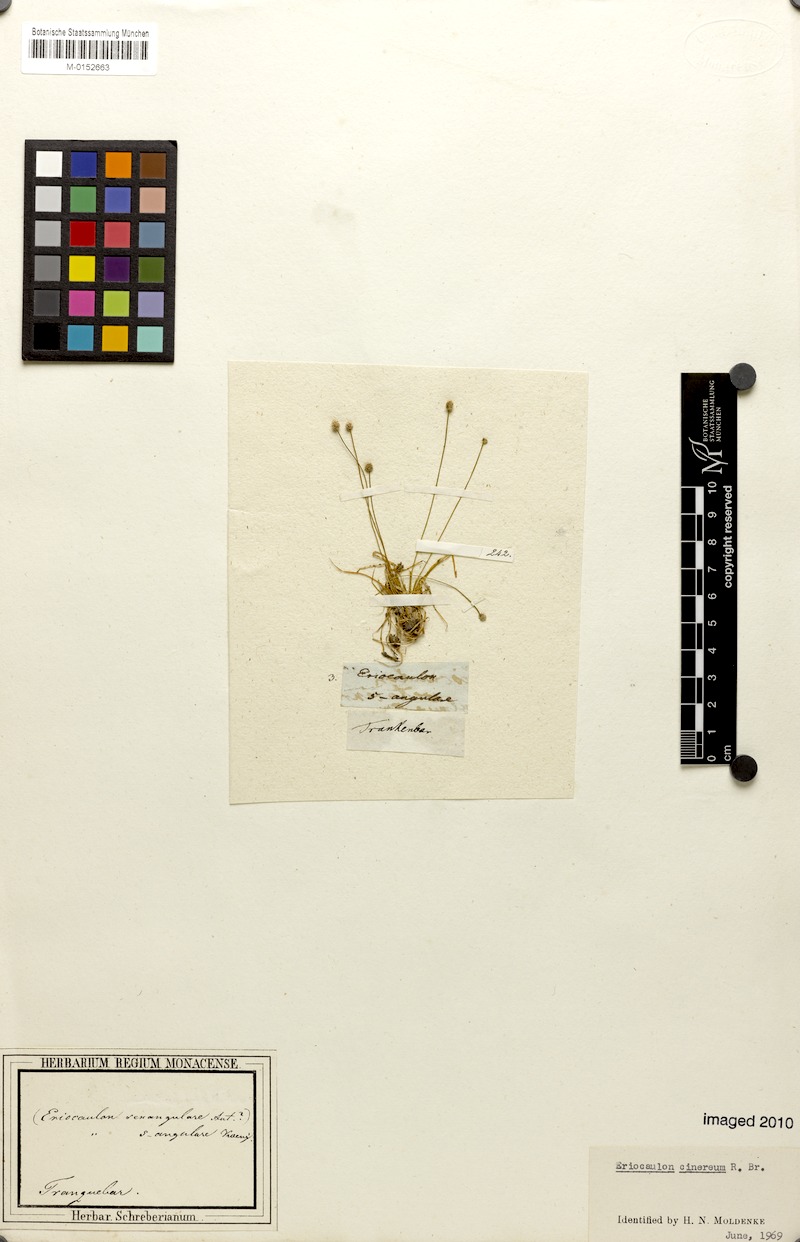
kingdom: Plantae
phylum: Tracheophyta
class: Liliopsida
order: Poales
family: Eriocaulaceae
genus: Eriocaulon
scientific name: Eriocaulon cinereum
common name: Ashy pipewort
